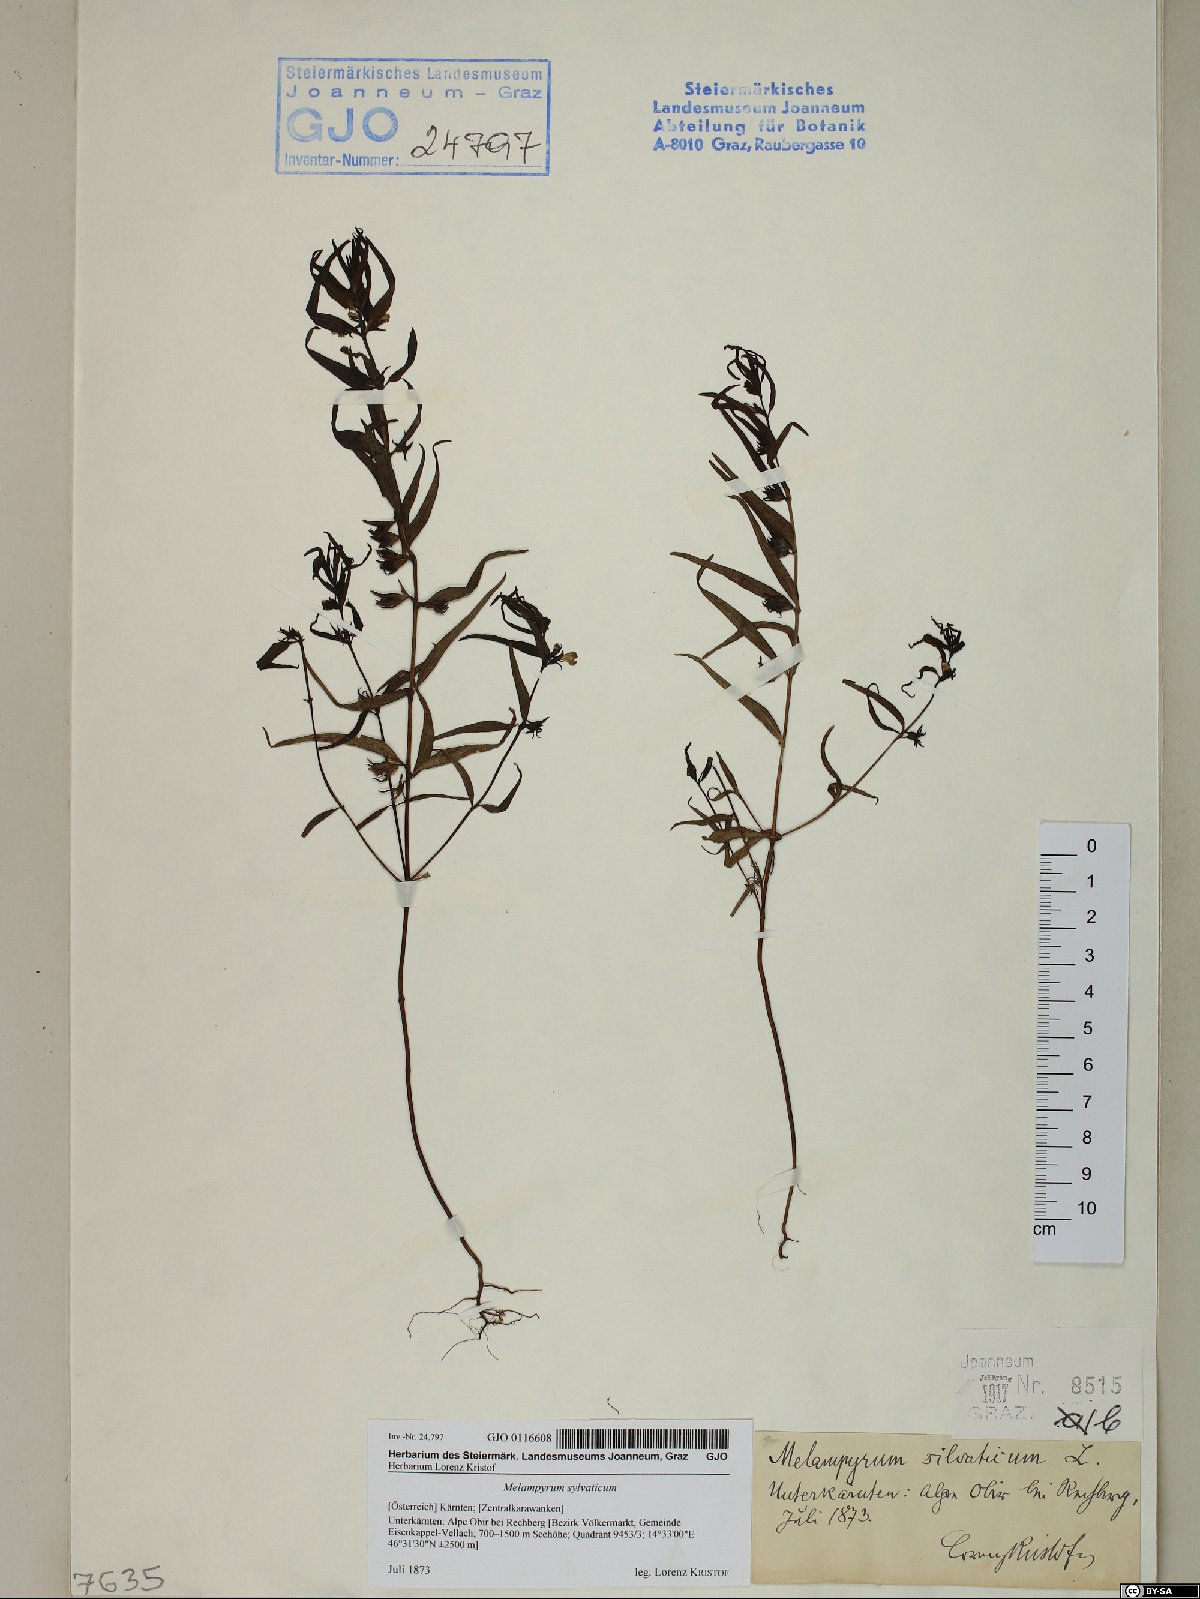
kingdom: Plantae
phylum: Tracheophyta
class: Magnoliopsida
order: Lamiales
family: Orobanchaceae
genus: Melampyrum
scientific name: Melampyrum sylvaticum
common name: Small cow-wheat
